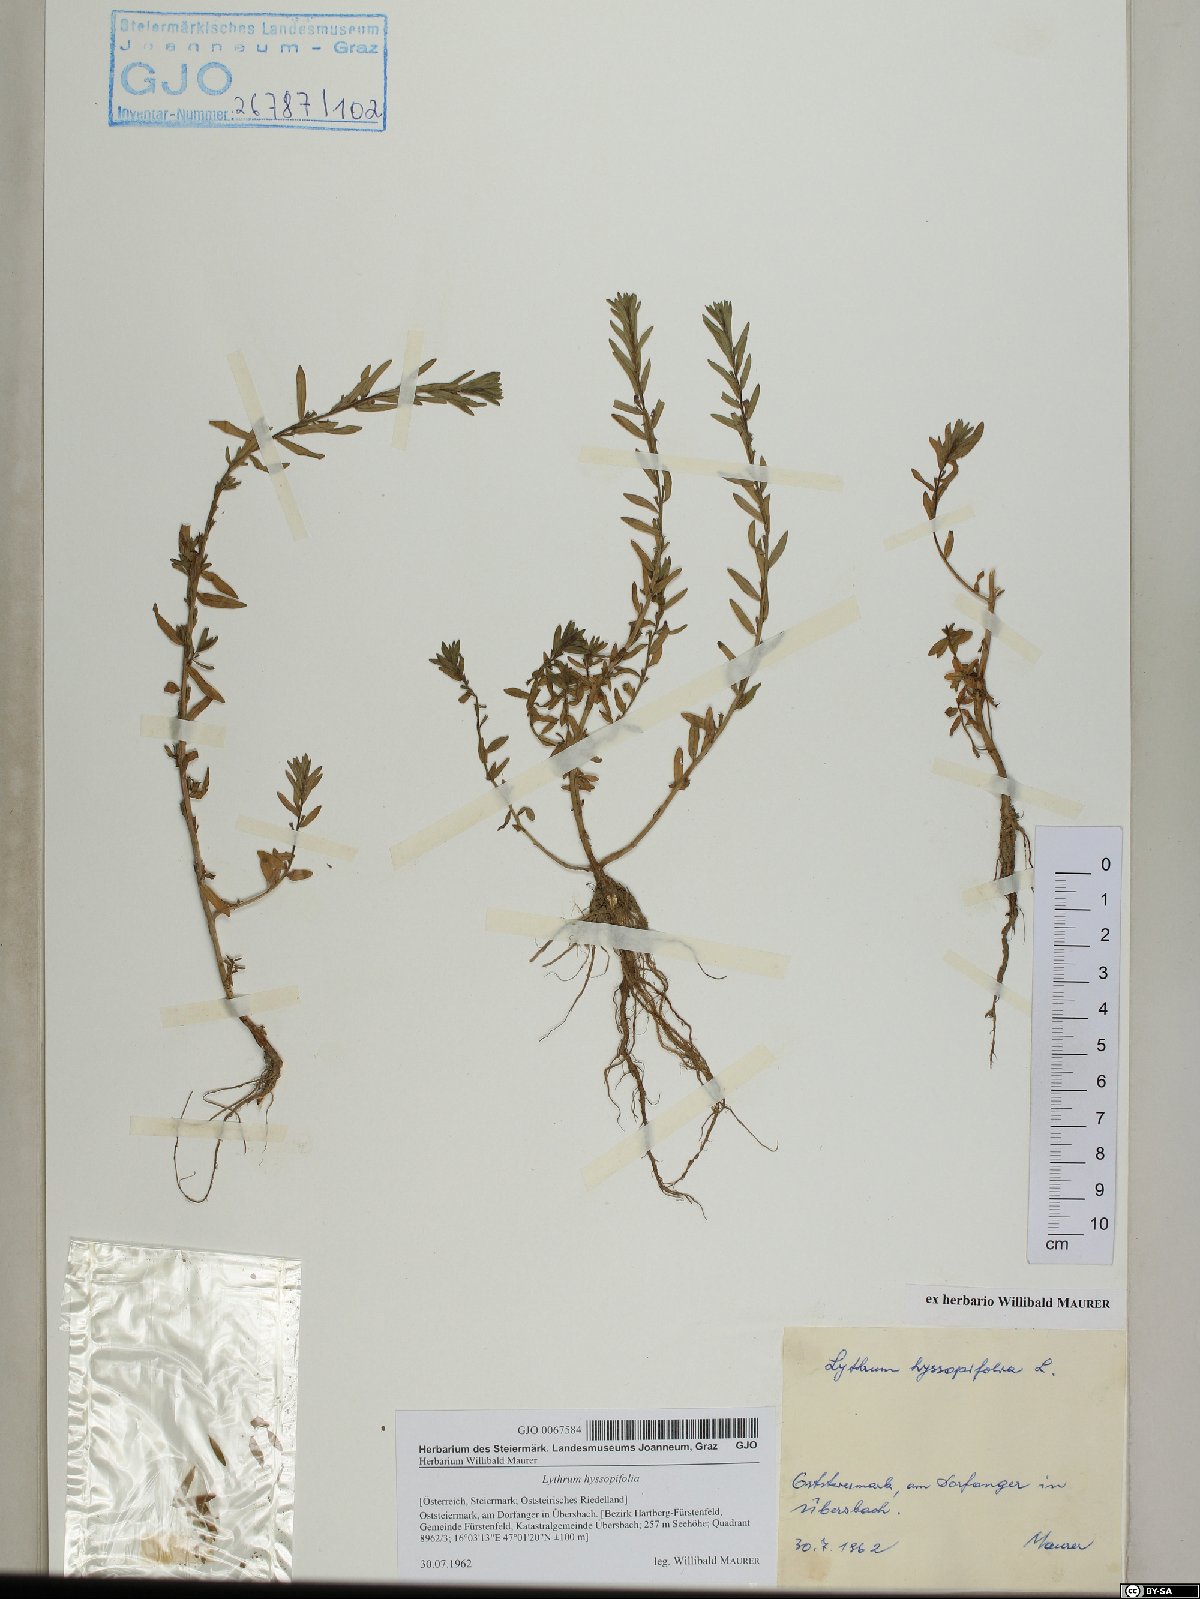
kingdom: Plantae
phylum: Tracheophyta
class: Magnoliopsida
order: Myrtales
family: Lythraceae
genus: Lythrum
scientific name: Lythrum hyssopifolia
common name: Grass-poly
